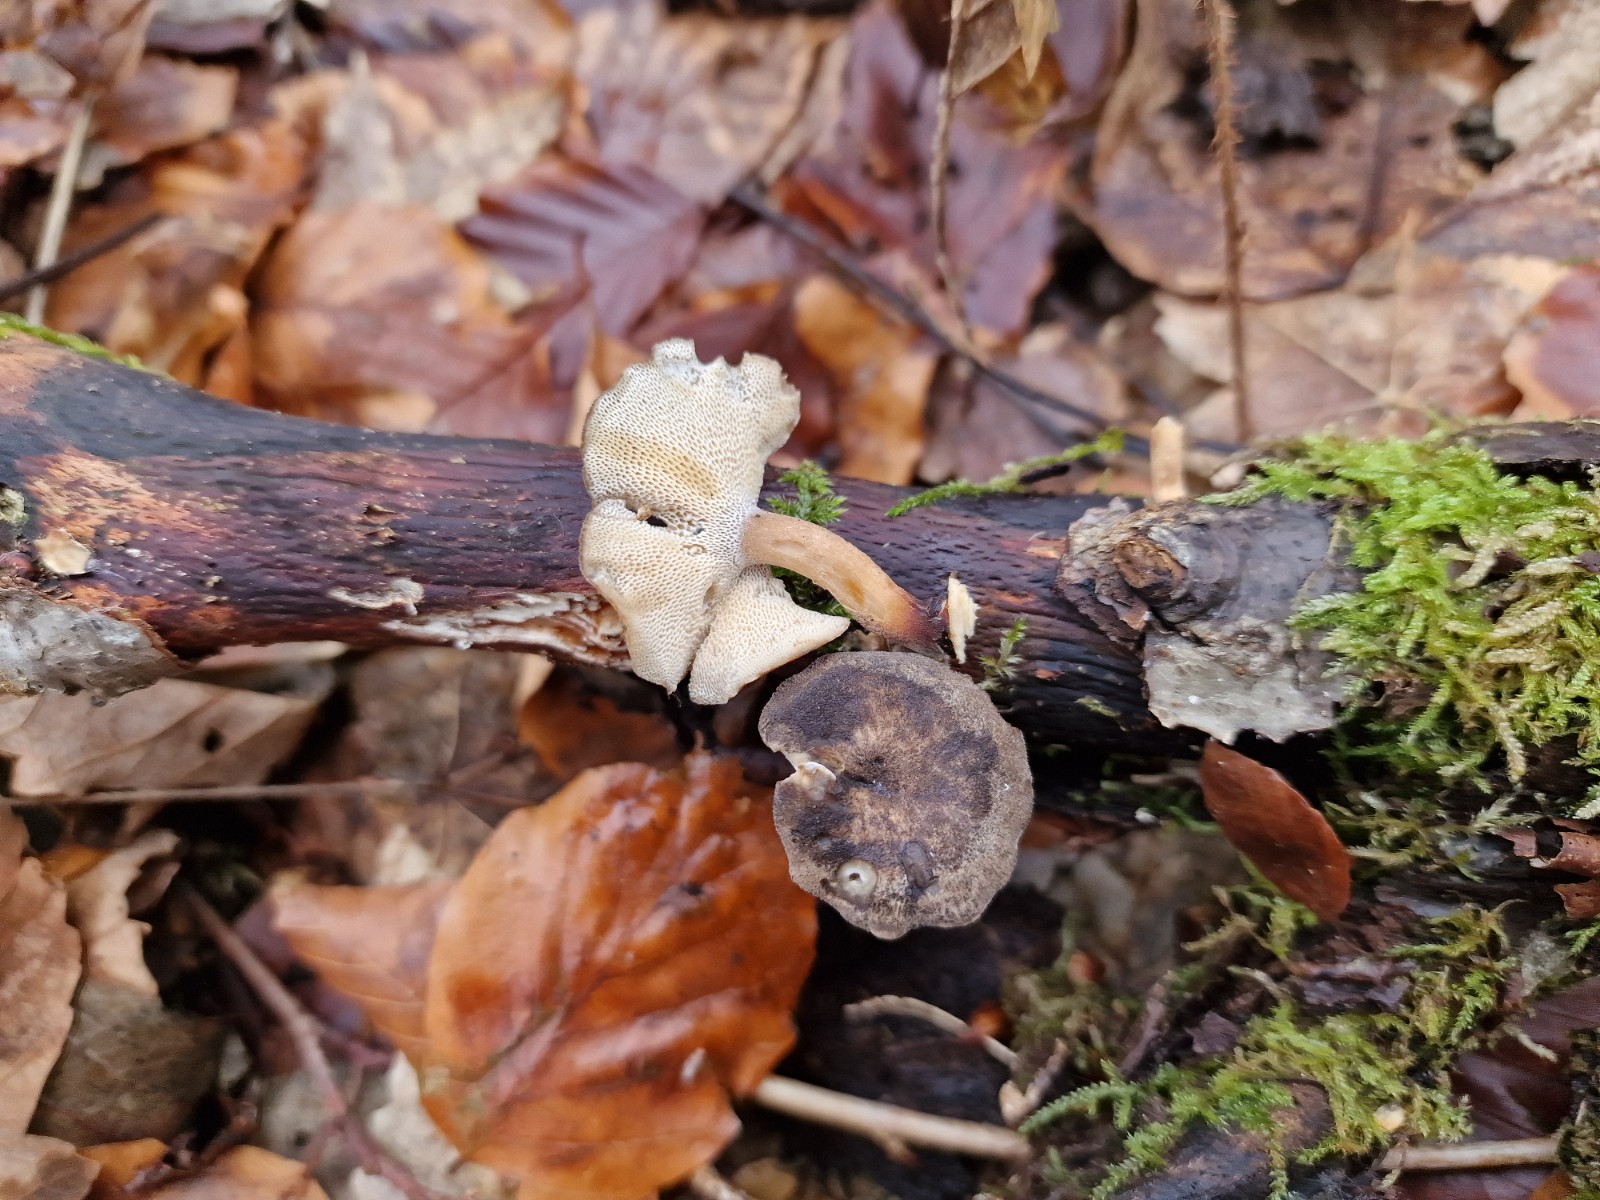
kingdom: Fungi
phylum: Basidiomycota
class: Agaricomycetes
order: Polyporales
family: Polyporaceae
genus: Lentinus
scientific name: Lentinus brumalis
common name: vinter-stilkporesvamp
